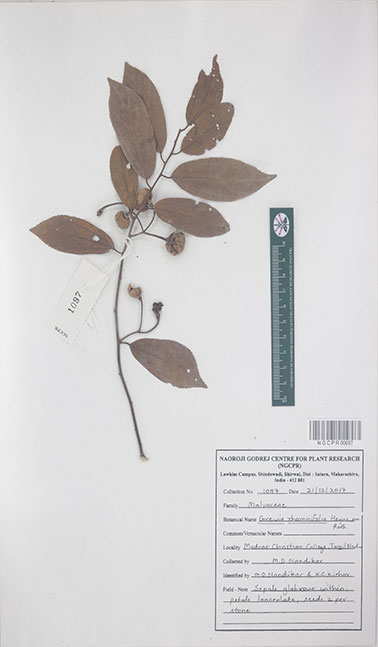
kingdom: Plantae
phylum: Tracheophyta
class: Magnoliopsida
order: Malvales
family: Malvaceae
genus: Grewia
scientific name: Grewia rhamnifolia
